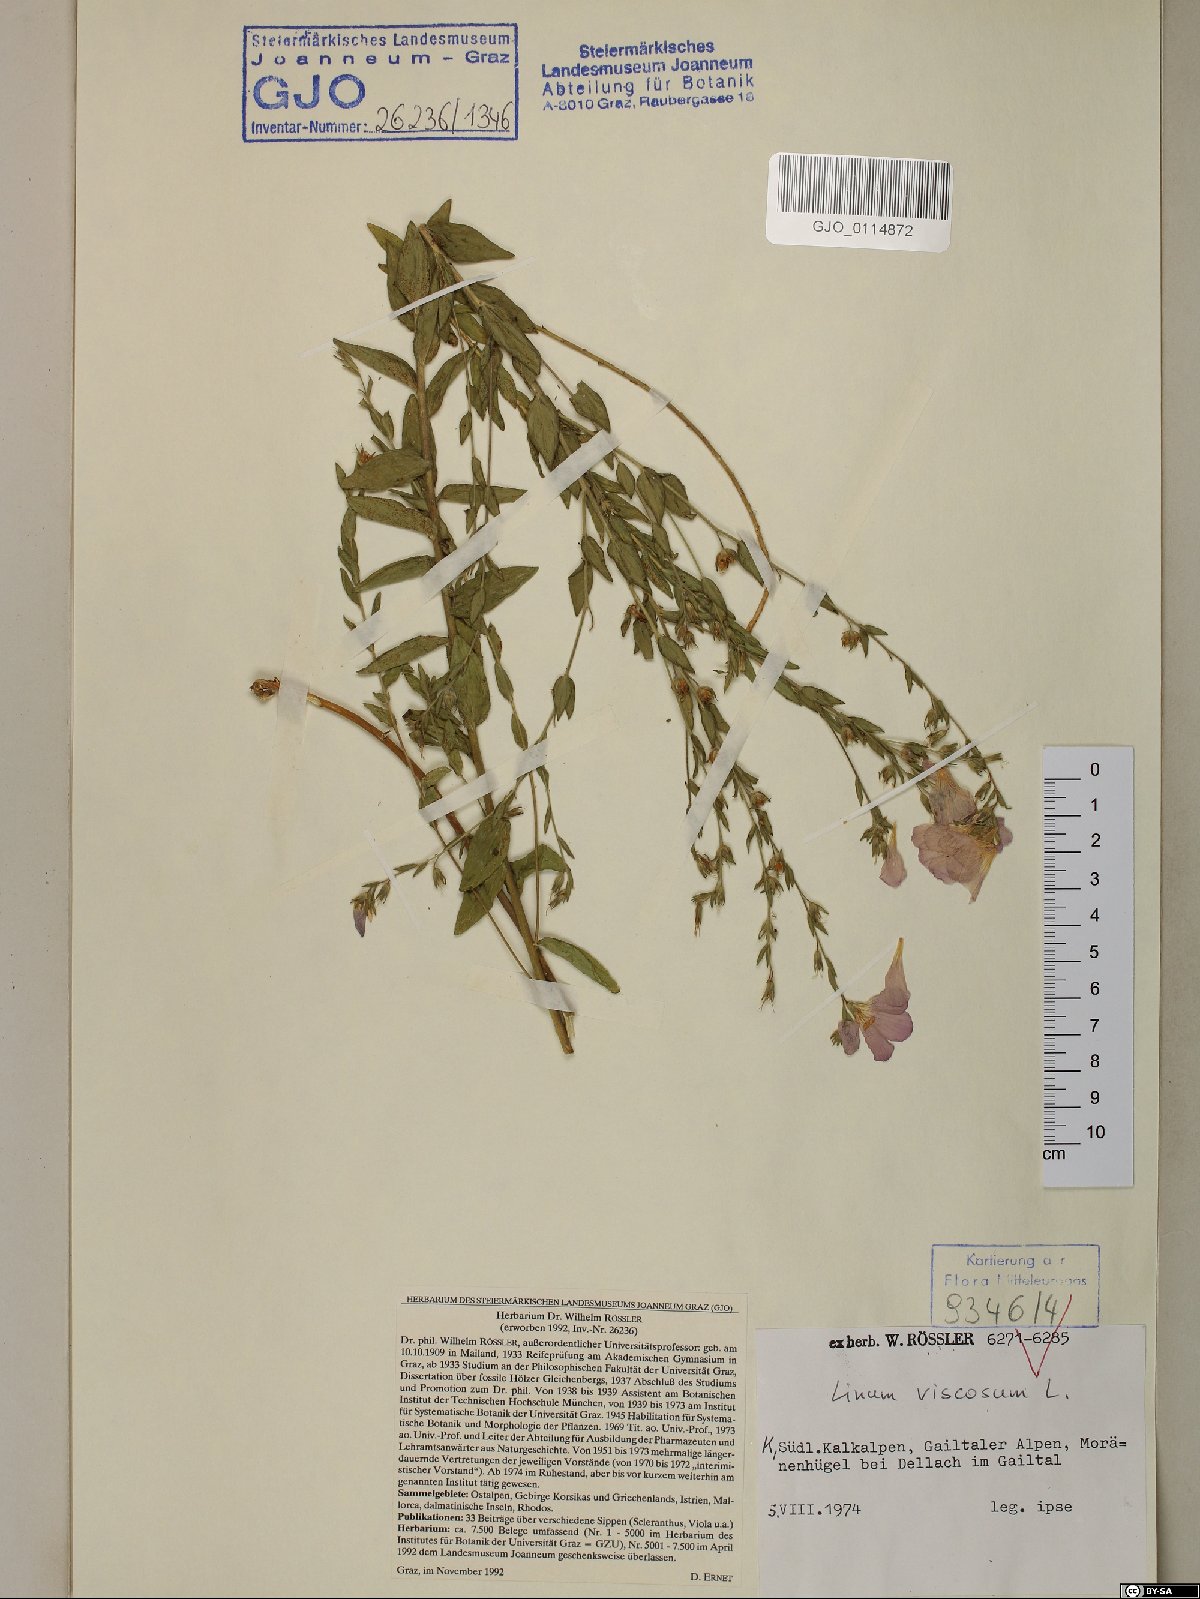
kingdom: Plantae
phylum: Tracheophyta
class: Magnoliopsida
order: Malpighiales
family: Linaceae
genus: Linum
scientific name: Linum viscosum
